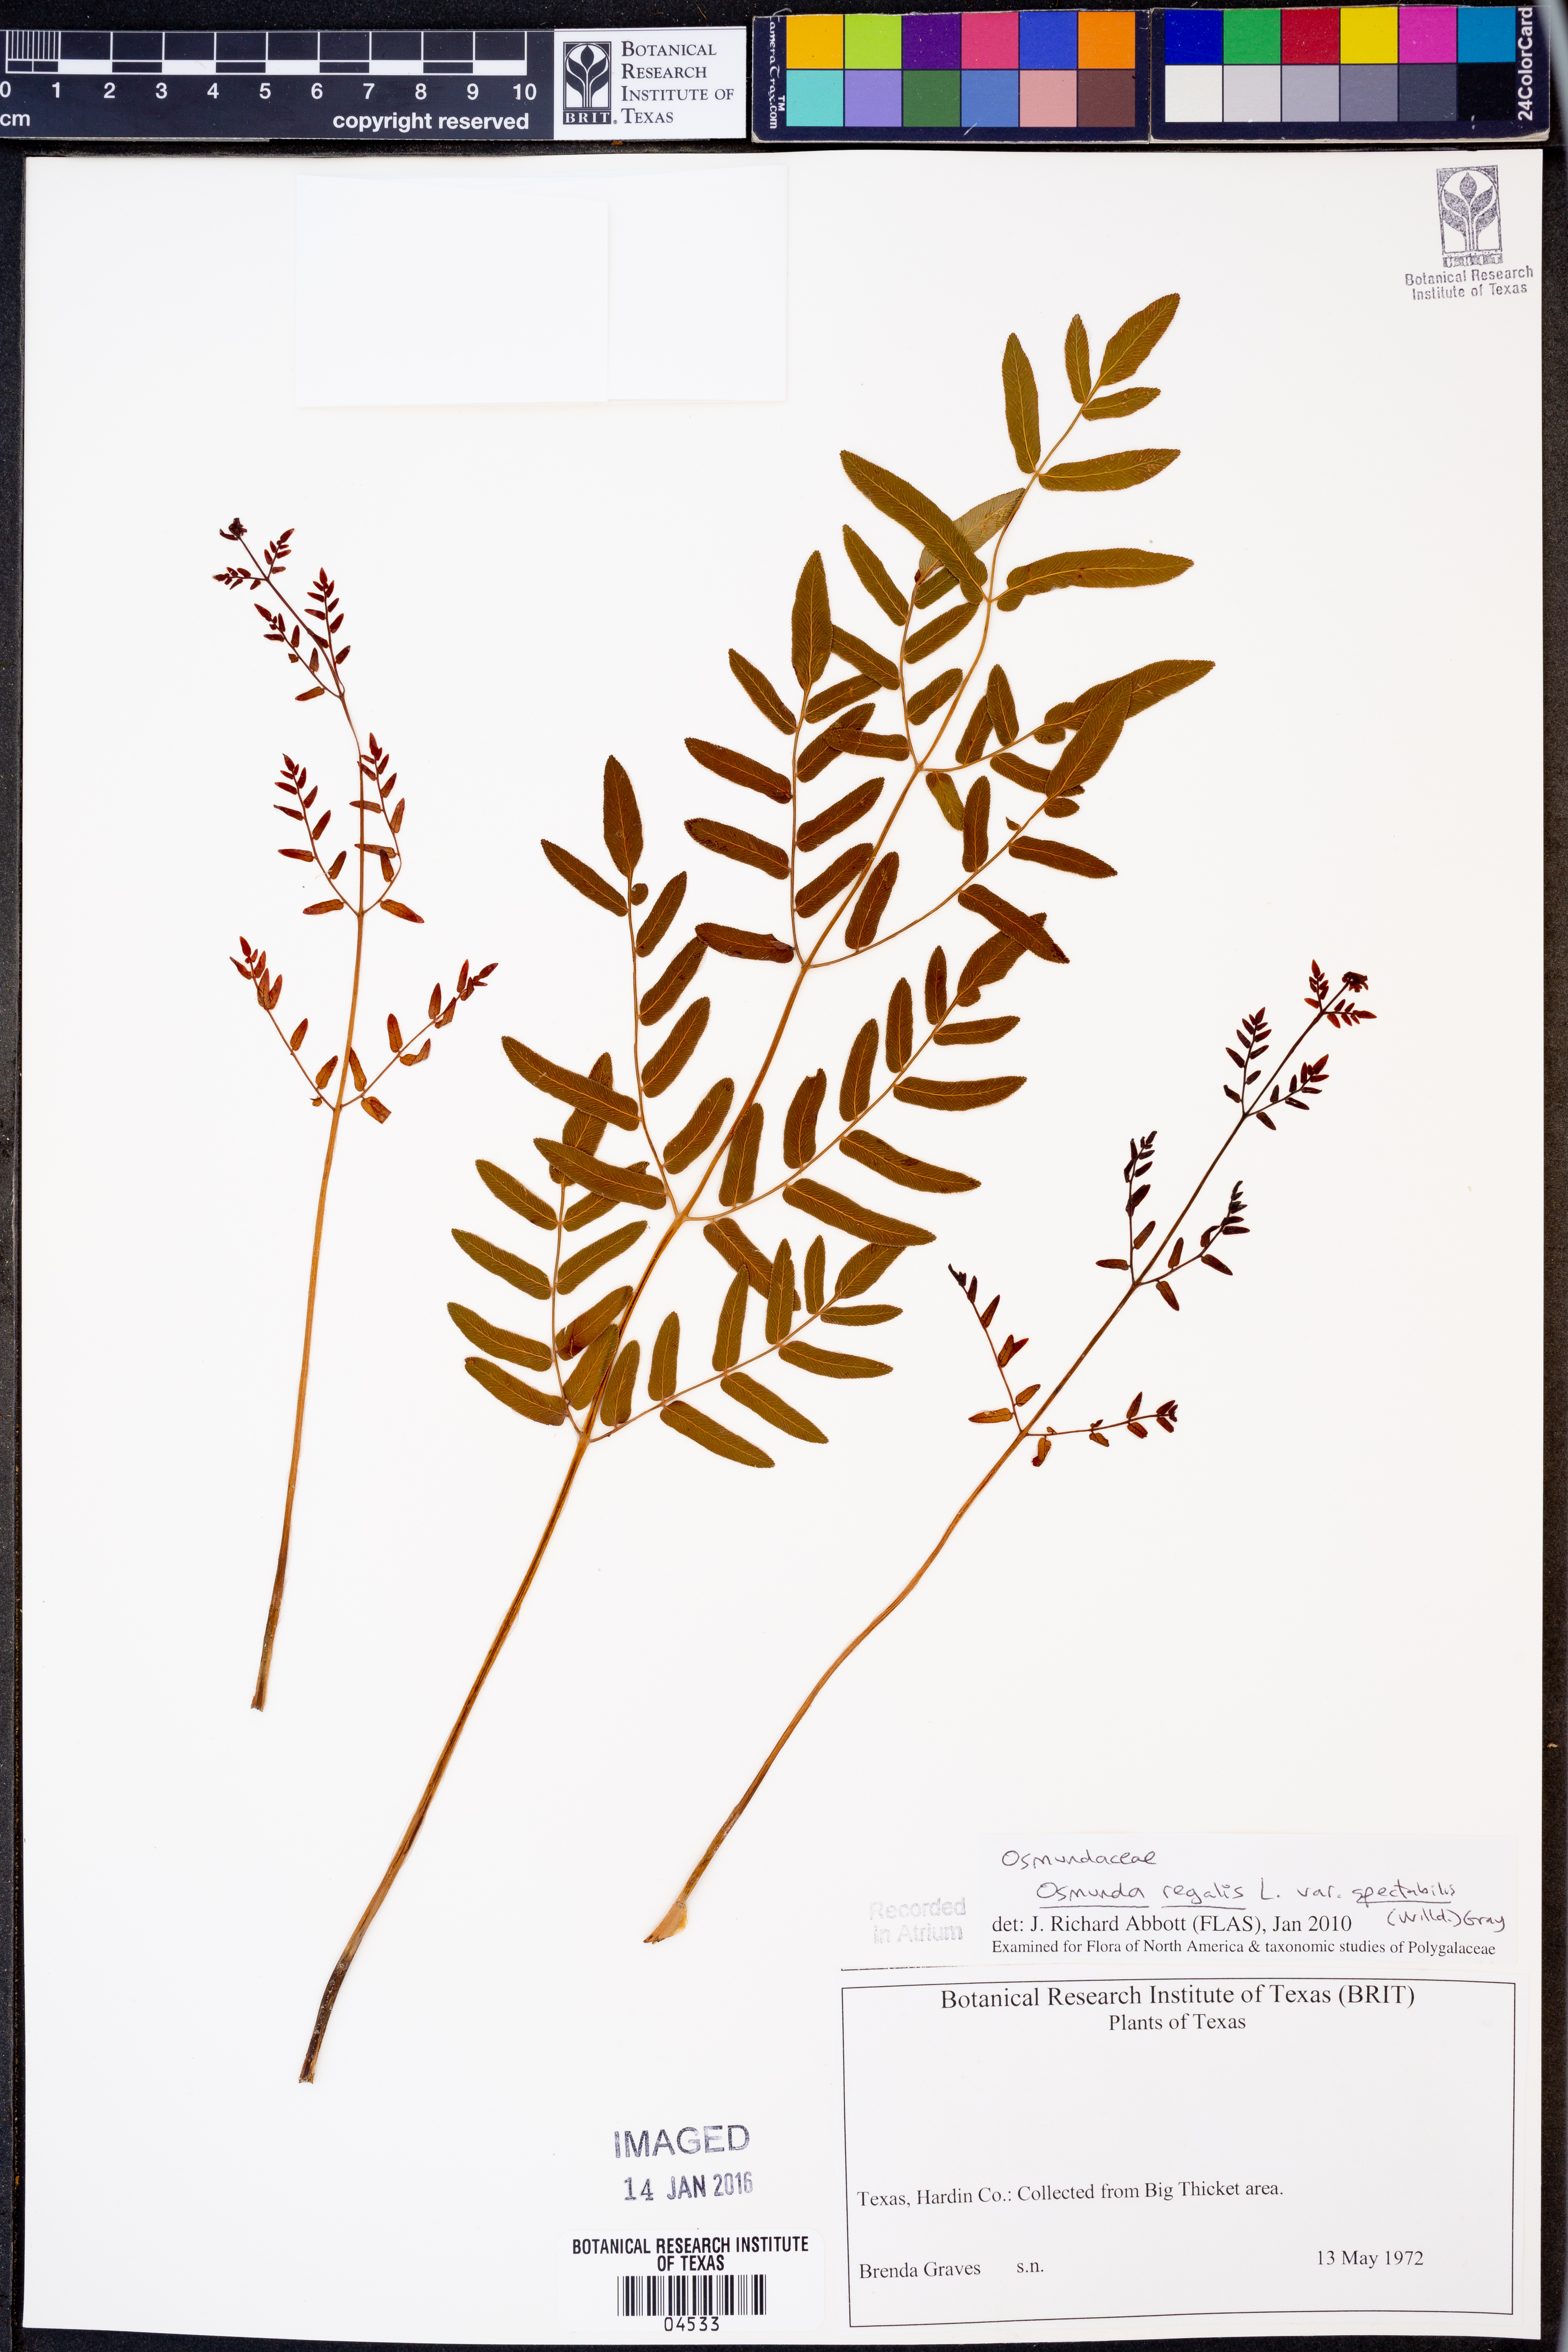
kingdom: Plantae
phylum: Tracheophyta
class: Polypodiopsida
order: Osmundales
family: Osmundaceae
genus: Osmunda
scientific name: Osmunda spectabilis
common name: American royal fern
